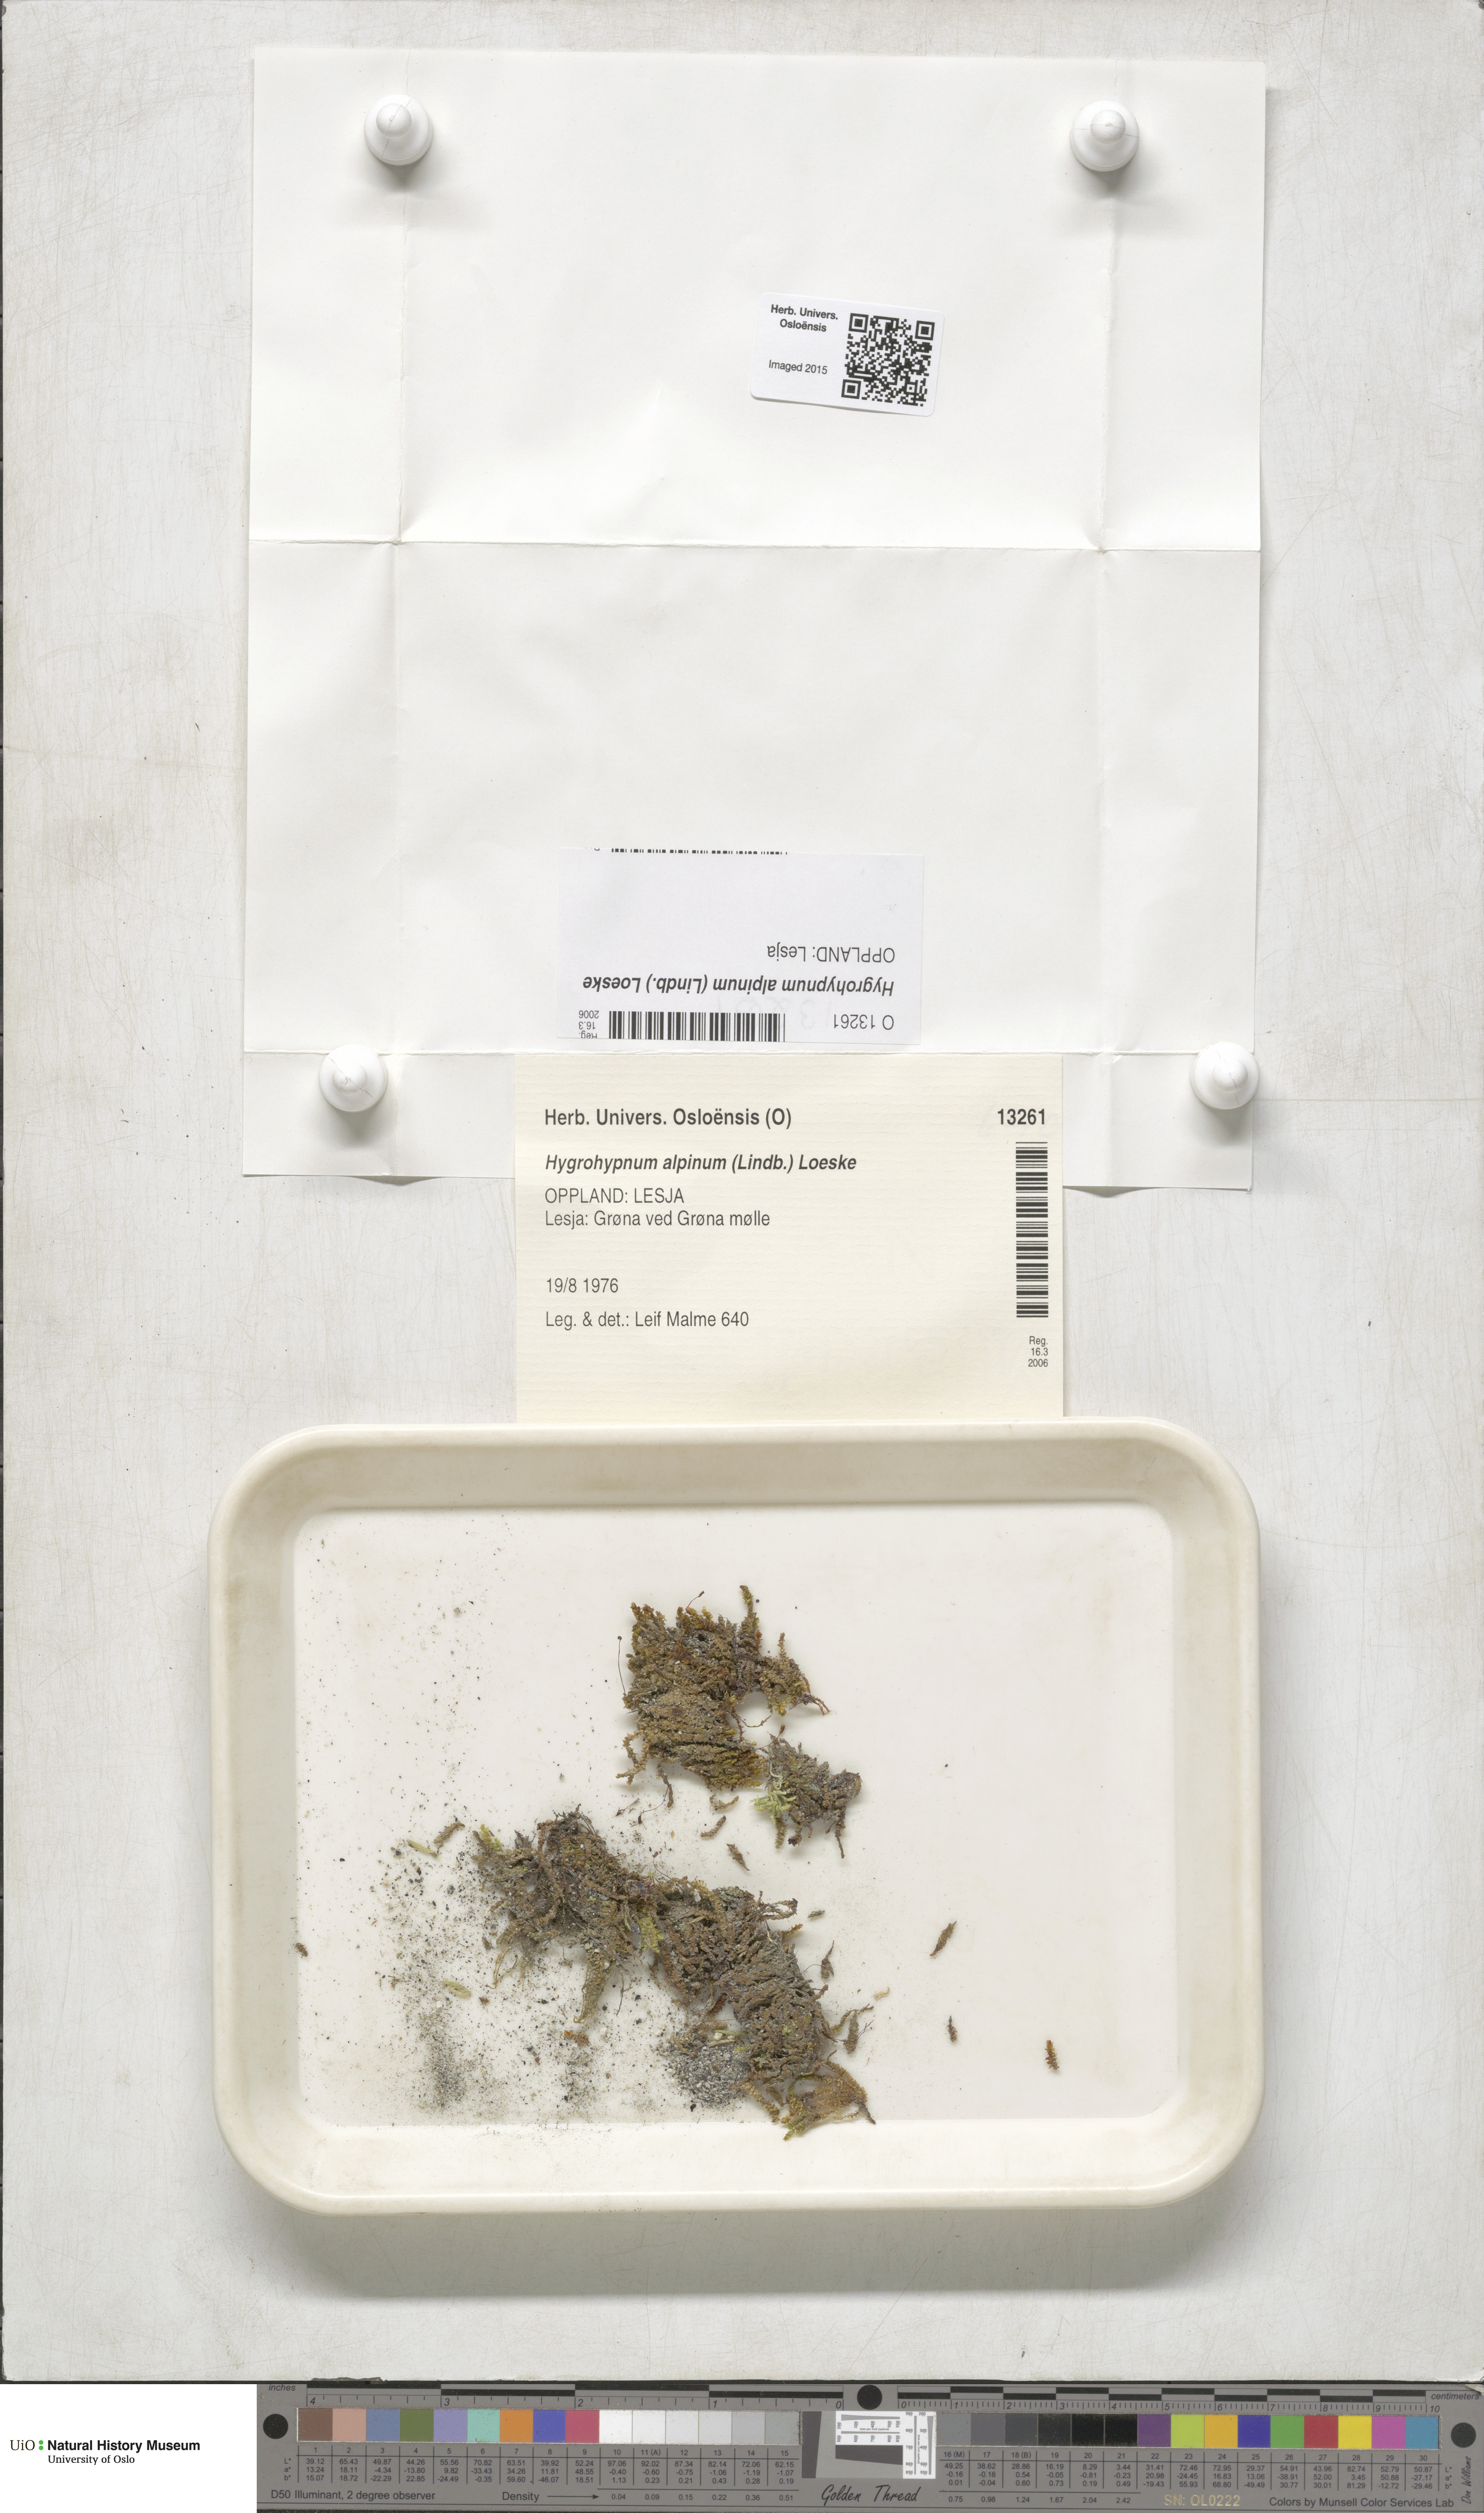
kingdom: Plantae
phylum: Bryophyta
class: Bryopsida
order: Hypnales
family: Amblystegiaceae
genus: Platyhypnum
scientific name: Platyhypnum alpinum
